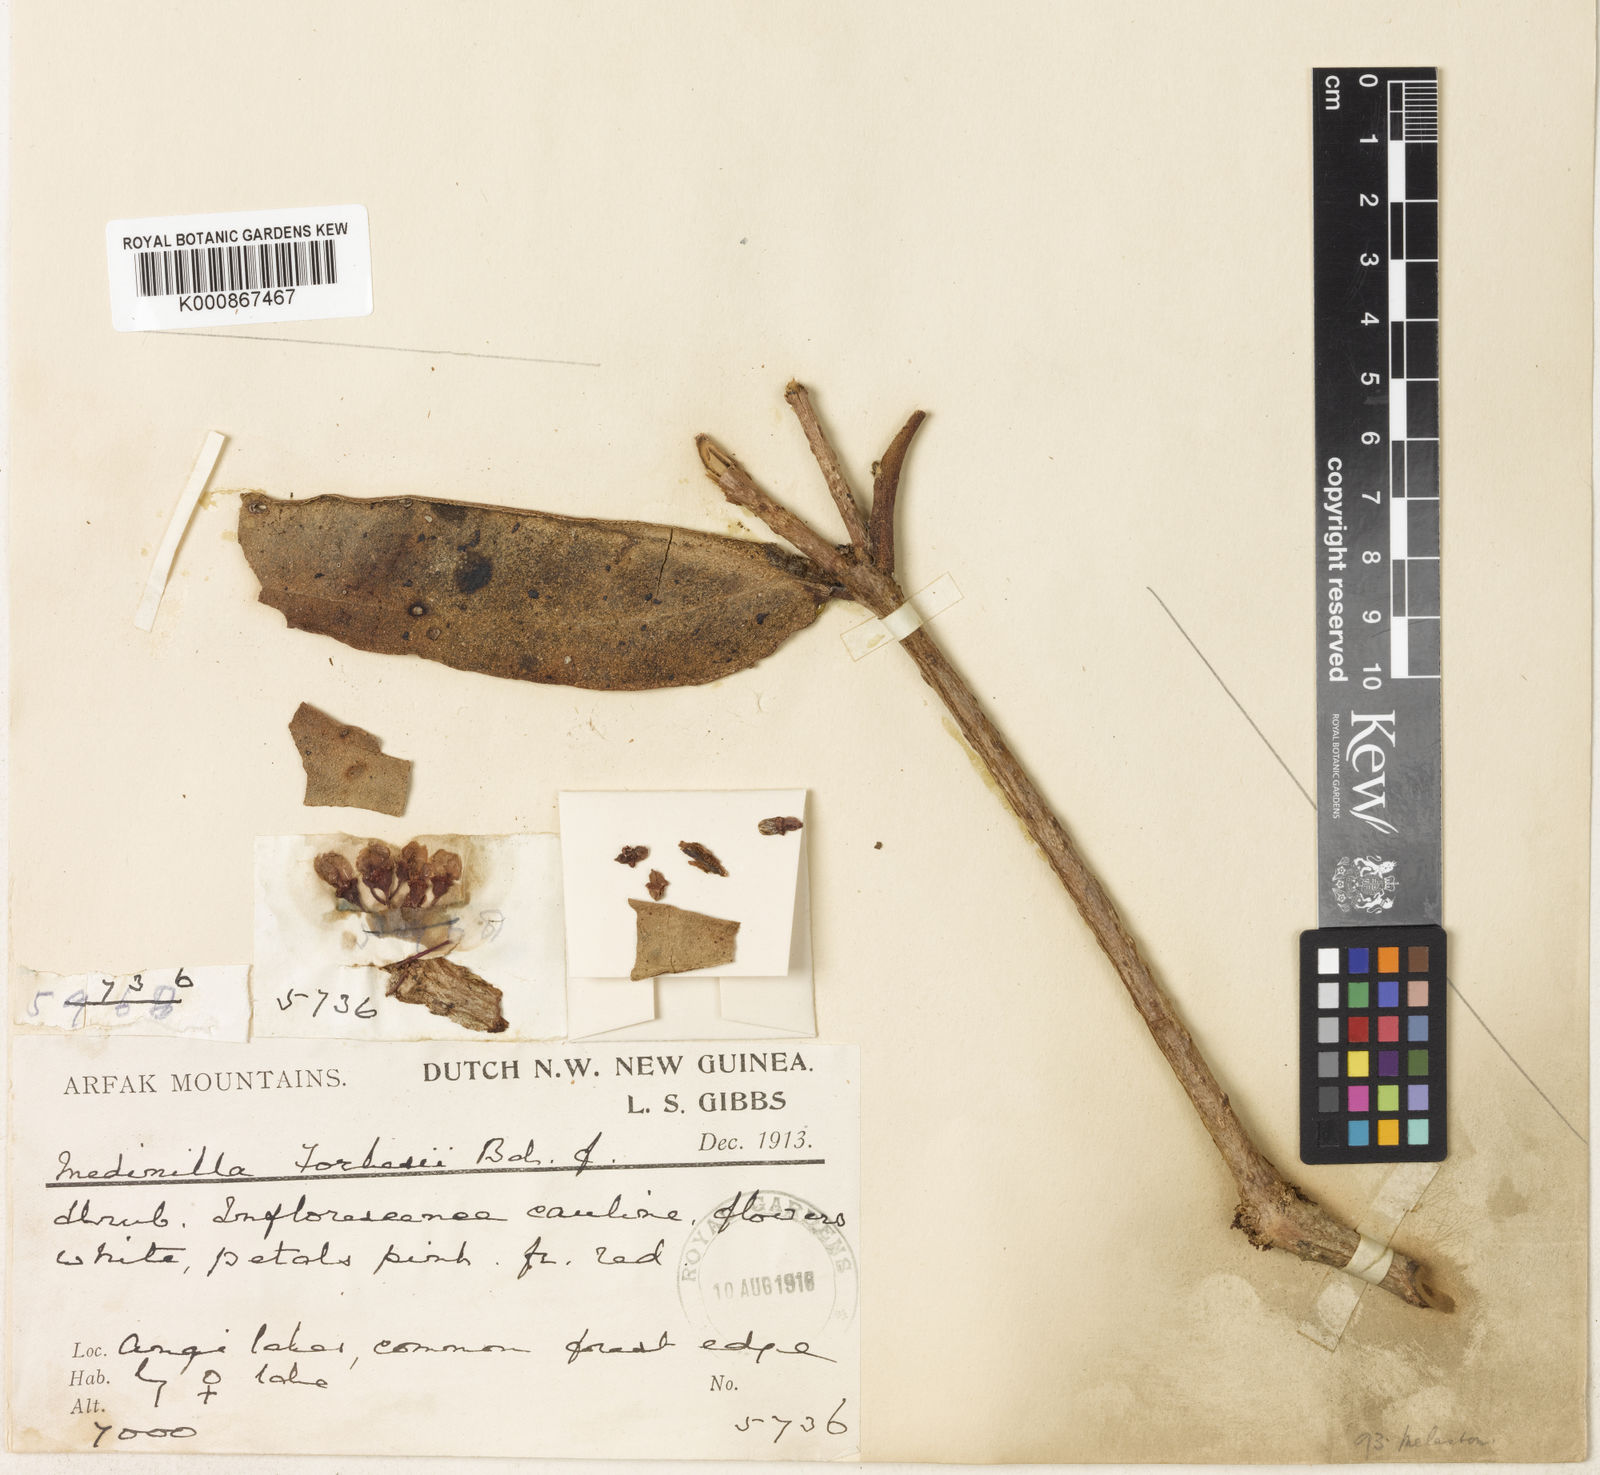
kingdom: Plantae
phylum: Tracheophyta
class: Magnoliopsida
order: Myrtales
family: Melastomataceae
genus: Medinilla
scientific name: Medinilla forbesii
